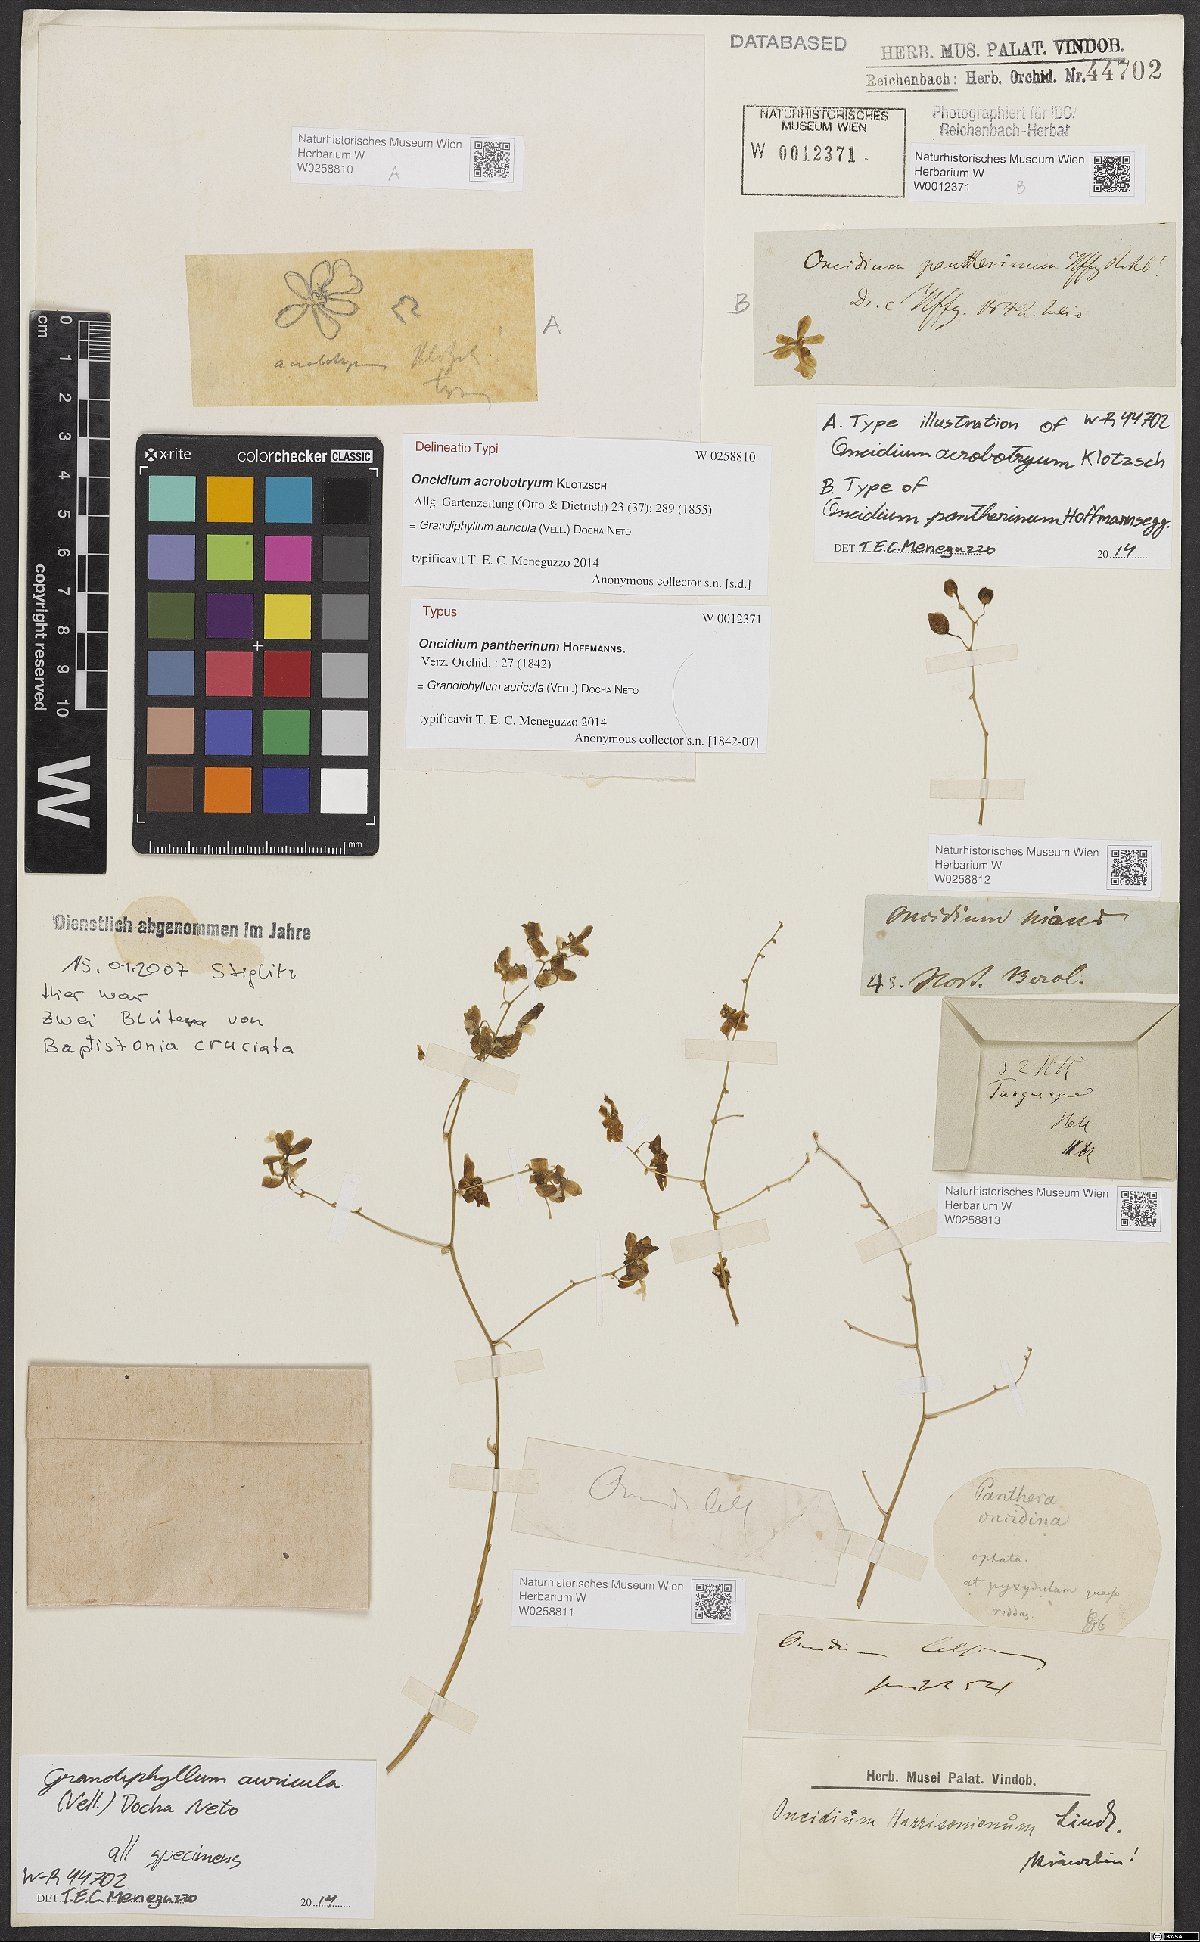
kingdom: Plantae
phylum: Tracheophyta
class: Liliopsida
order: Asparagales
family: Orchidaceae
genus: Grandiphyllum
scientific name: Grandiphyllum auricula
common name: Mule-ear orchid
